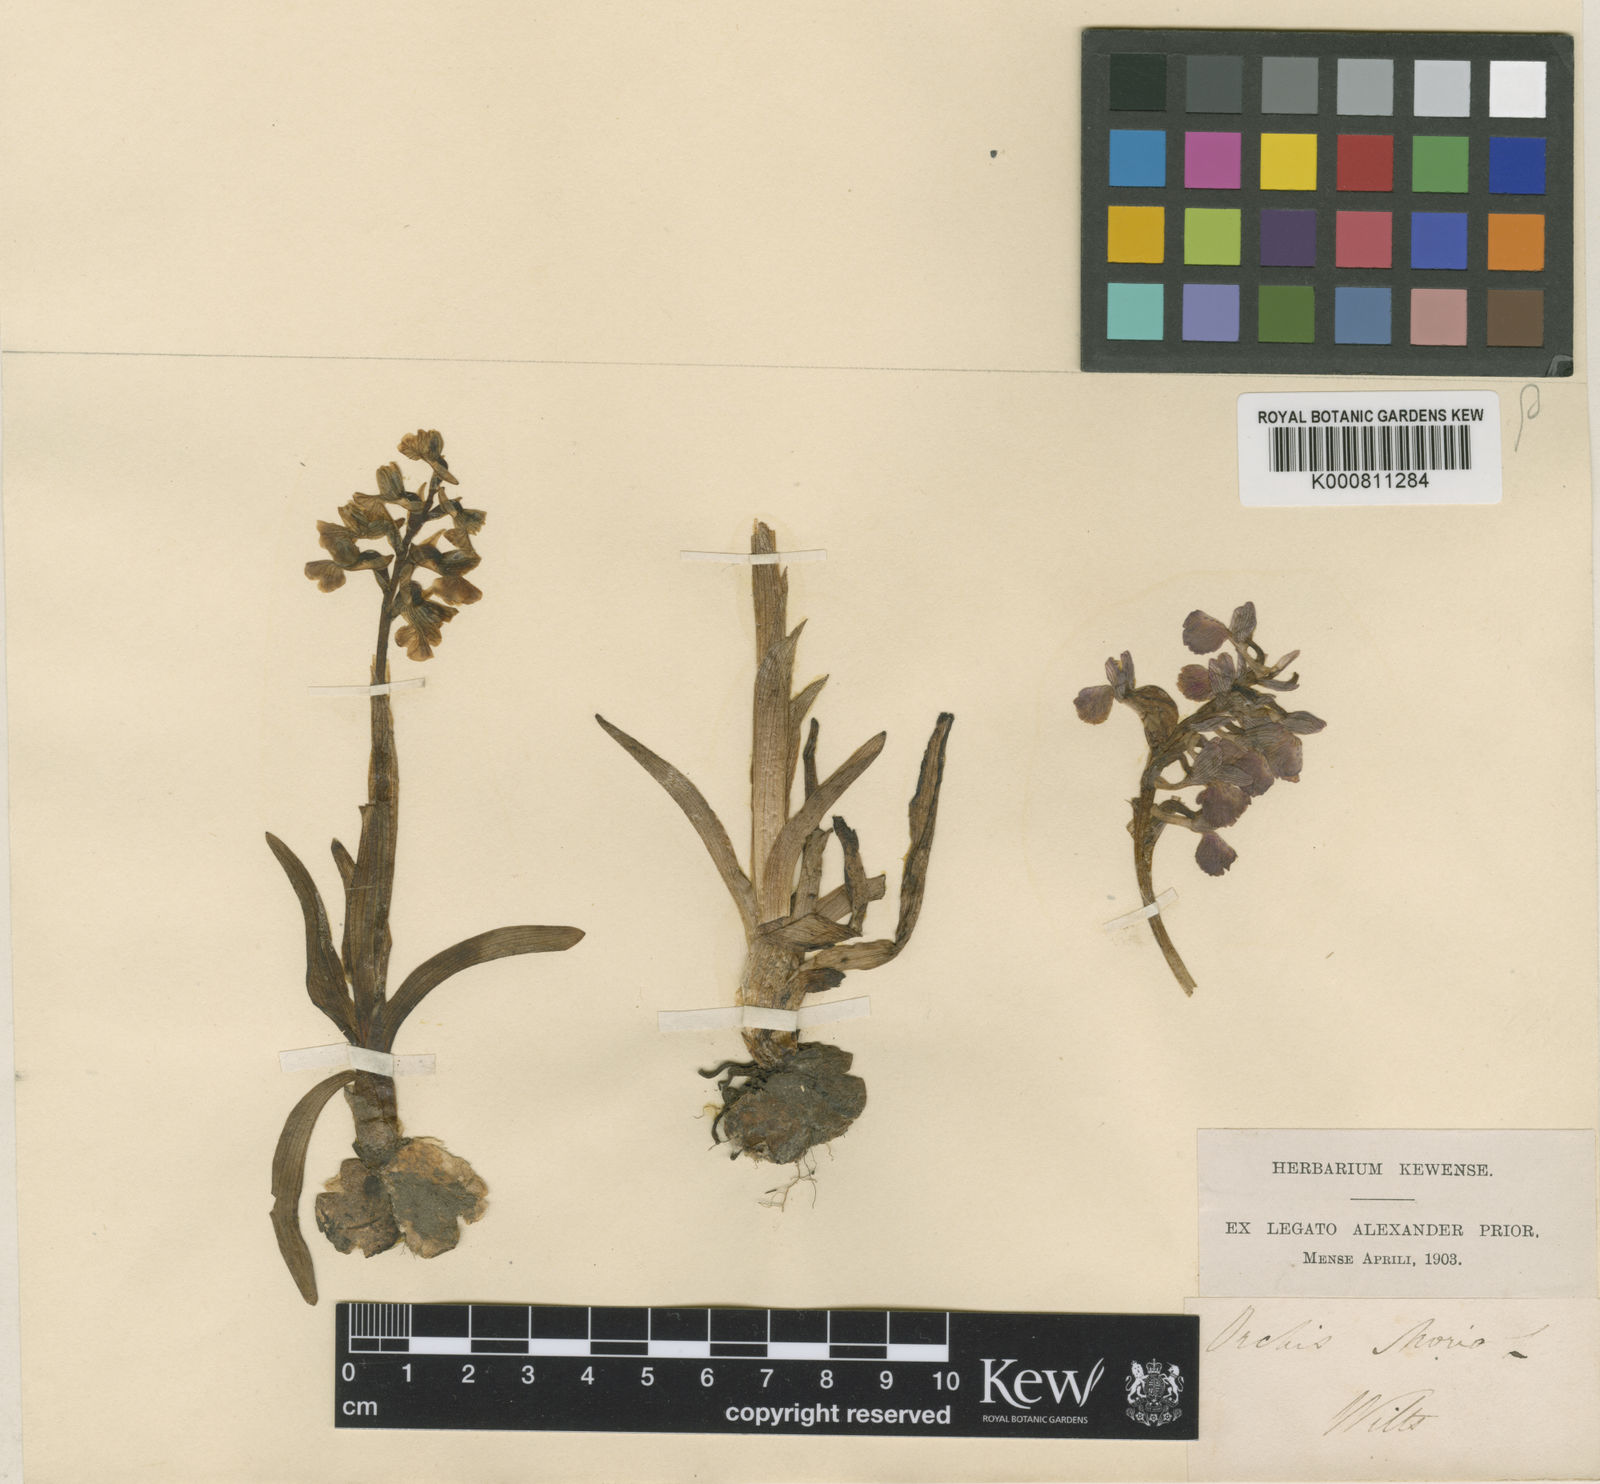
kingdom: Plantae
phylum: Tracheophyta
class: Liliopsida
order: Asparagales
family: Orchidaceae
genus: Anacamptis
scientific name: Anacamptis morio
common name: Green-winged orchid
